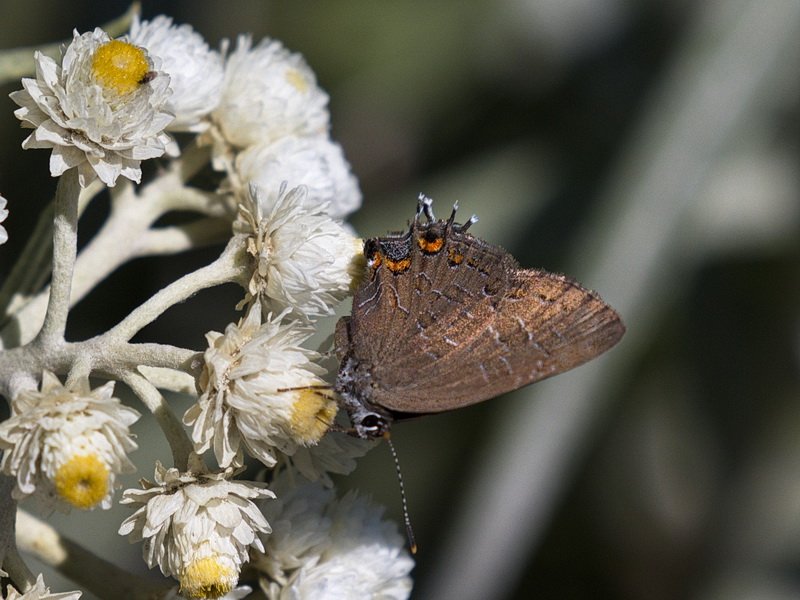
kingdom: Animalia
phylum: Arthropoda
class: Insecta
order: Lepidoptera
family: Lycaenidae
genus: Satyrium
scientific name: Satyrium liparops
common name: Striped Hairstreak
